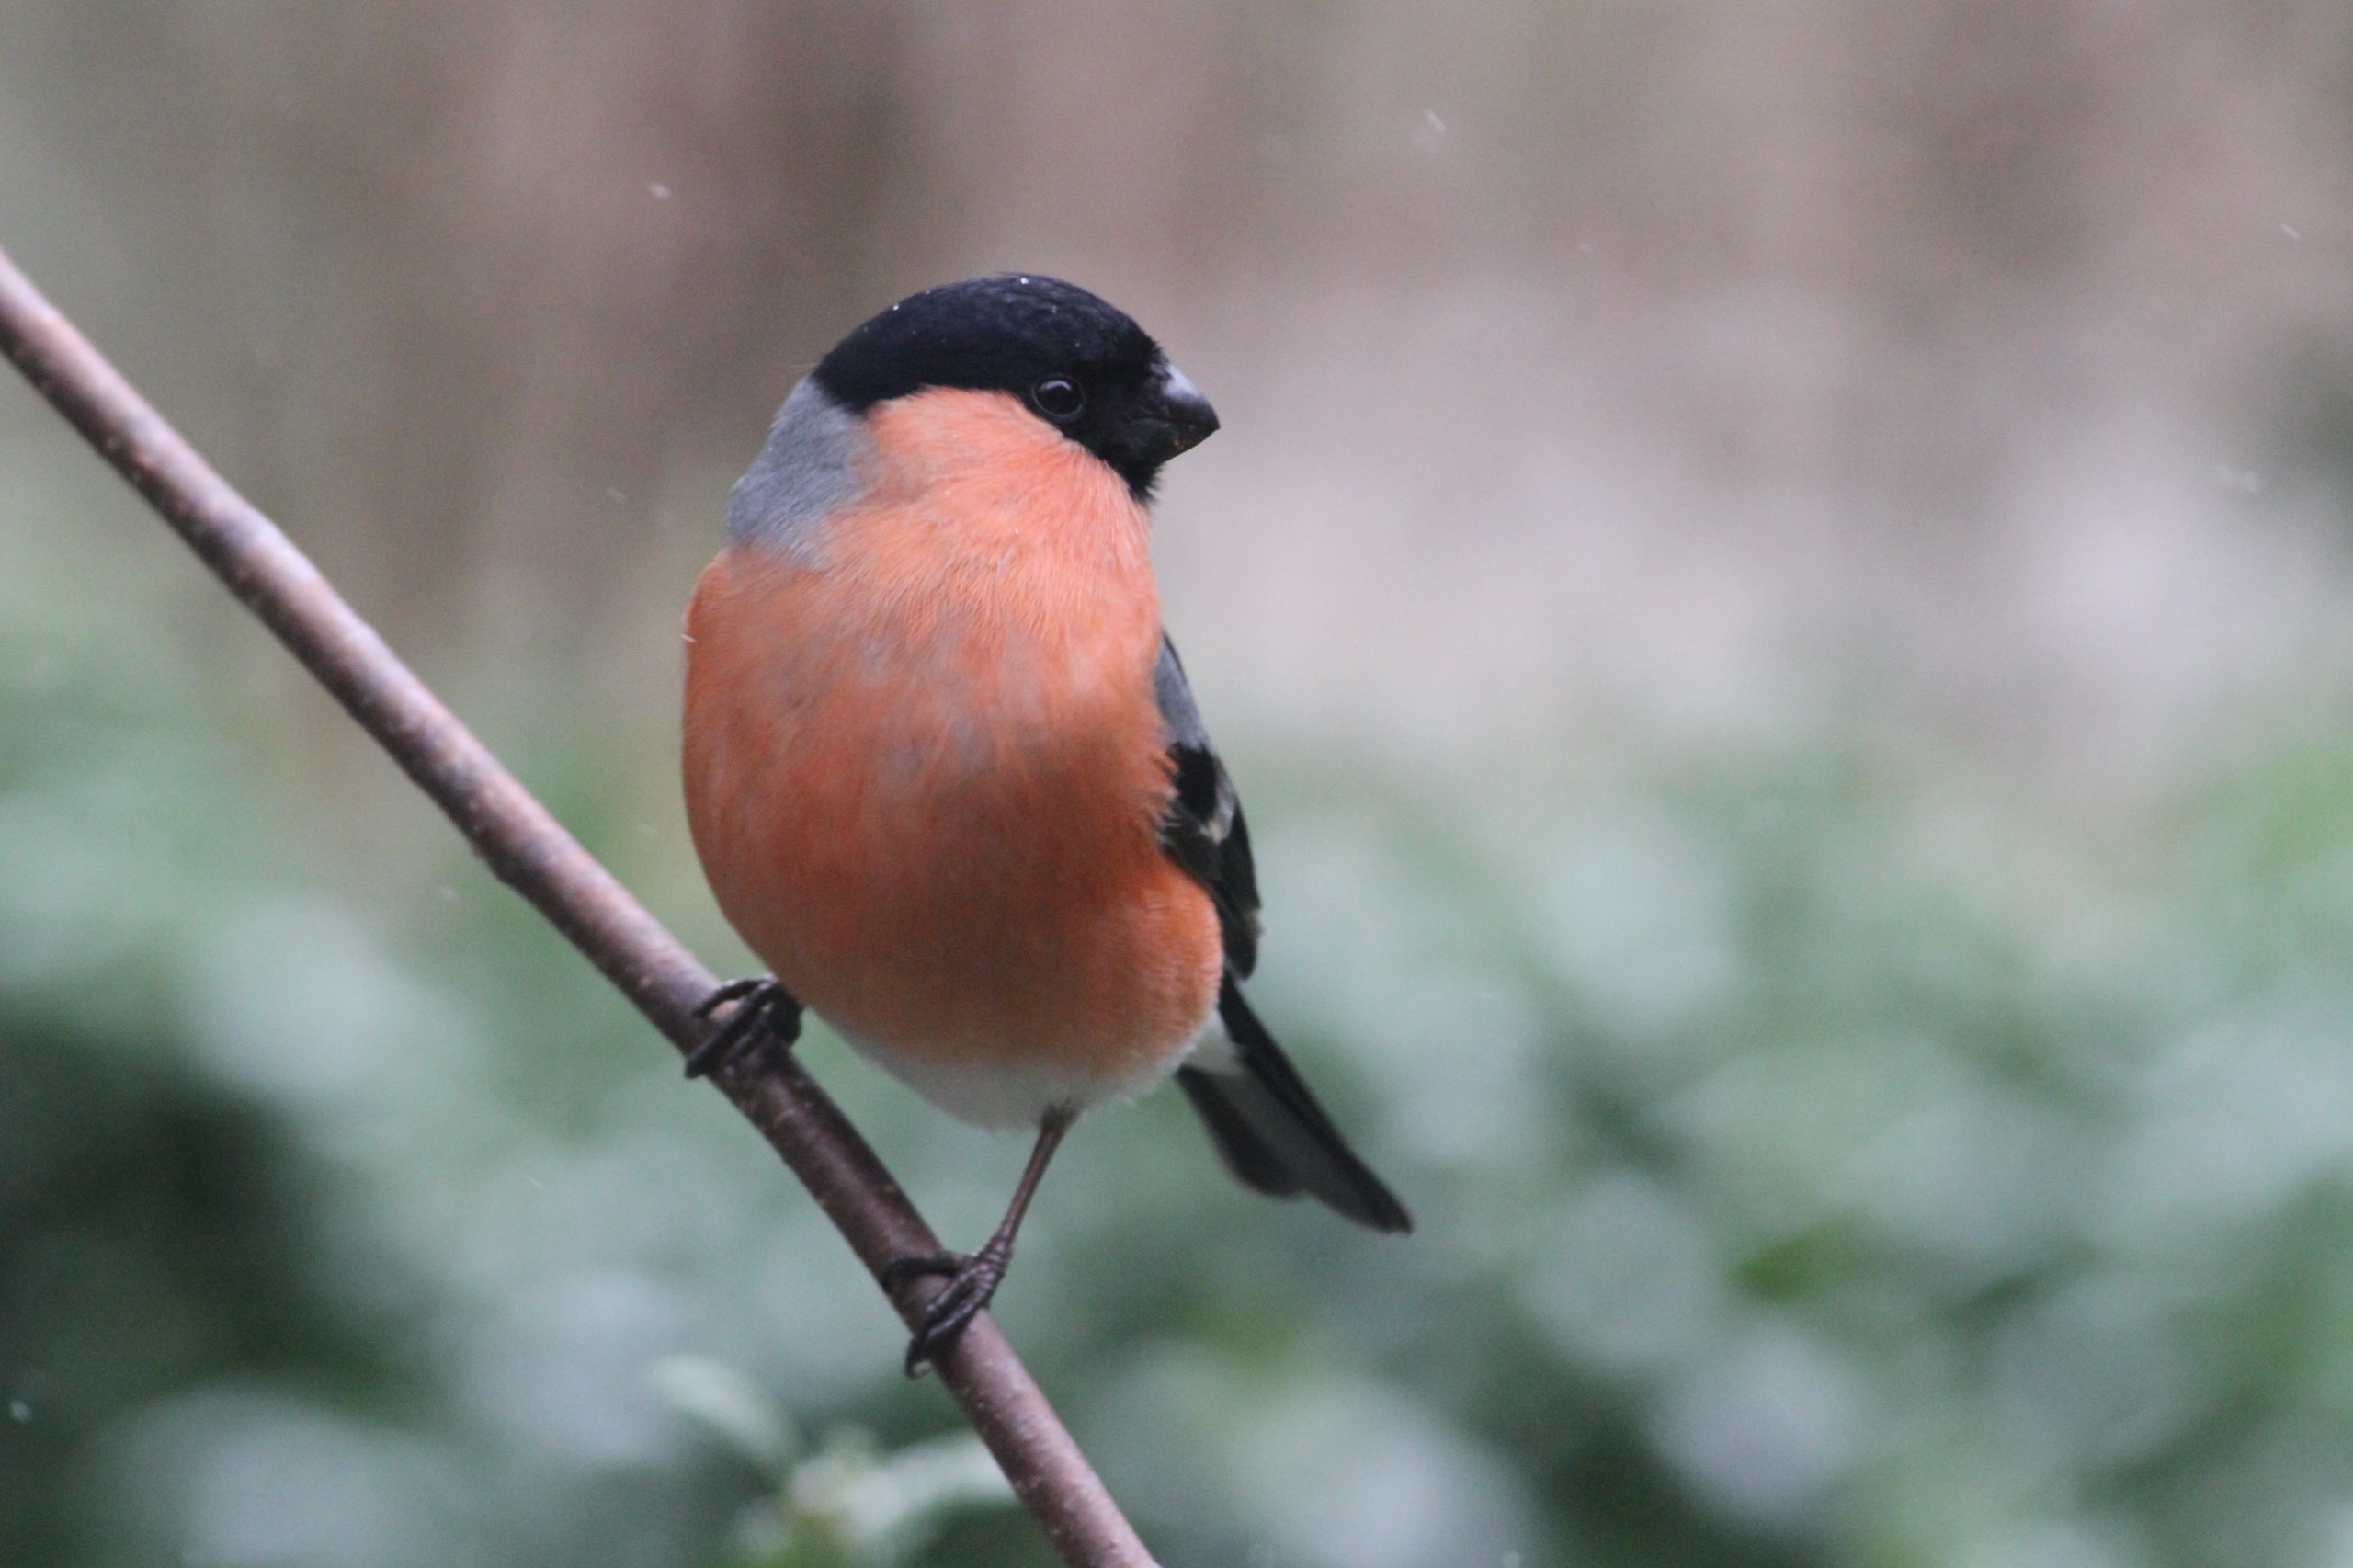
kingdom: Animalia
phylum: Chordata
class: Aves
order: Passeriformes
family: Fringillidae
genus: Pyrrhula
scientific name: Pyrrhula pyrrhula
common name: Dompap
